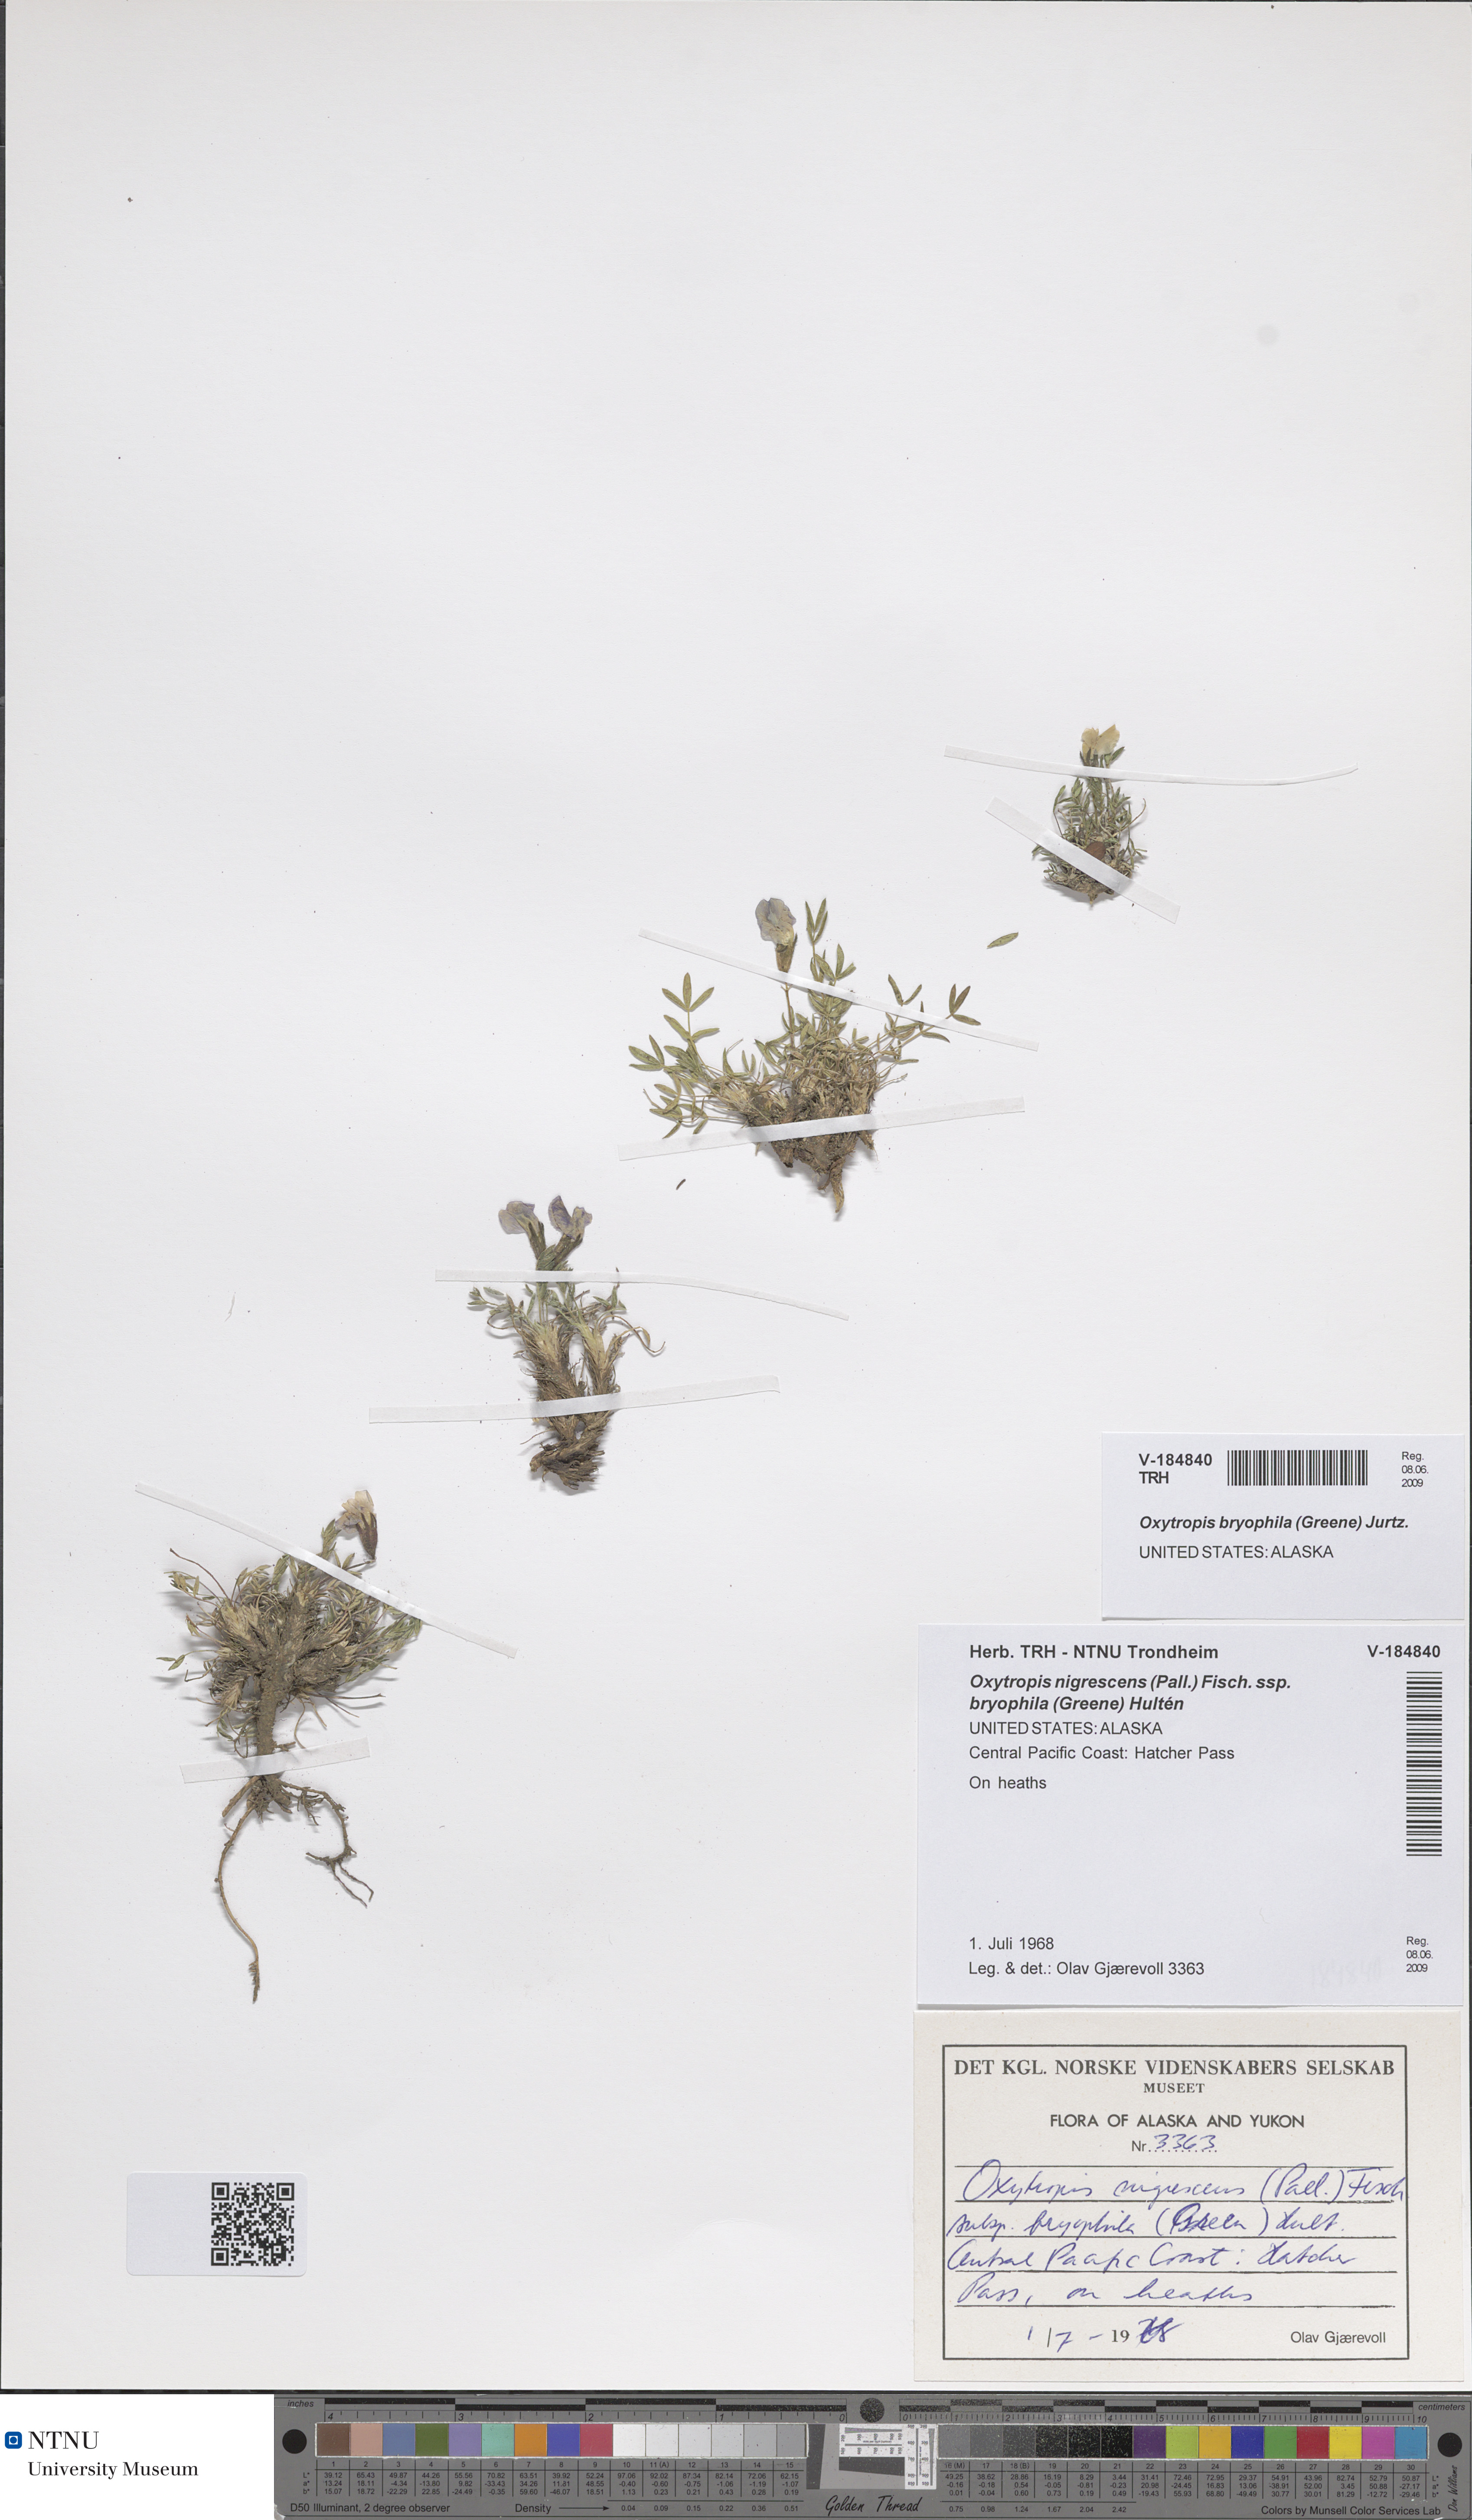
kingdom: Plantae
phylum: Tracheophyta
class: Magnoliopsida
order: Fabales
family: Fabaceae
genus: Oxytropis
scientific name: Oxytropis bryophila
